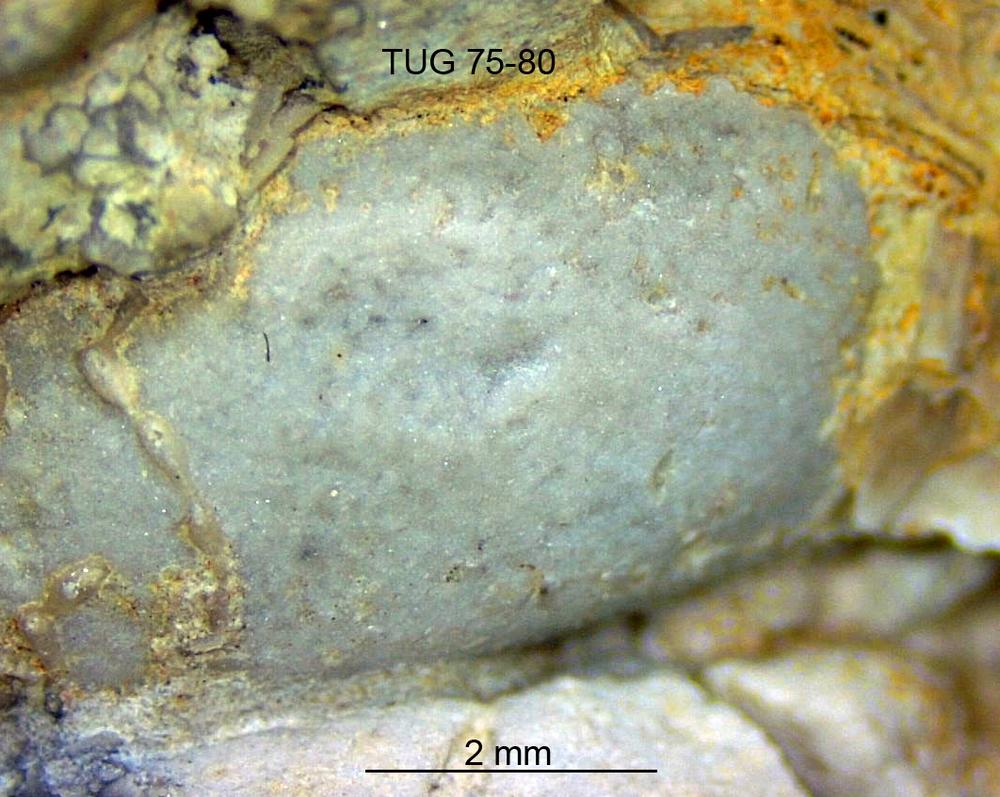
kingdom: Animalia
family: Coprulidae
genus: Coprulus
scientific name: Coprulus
